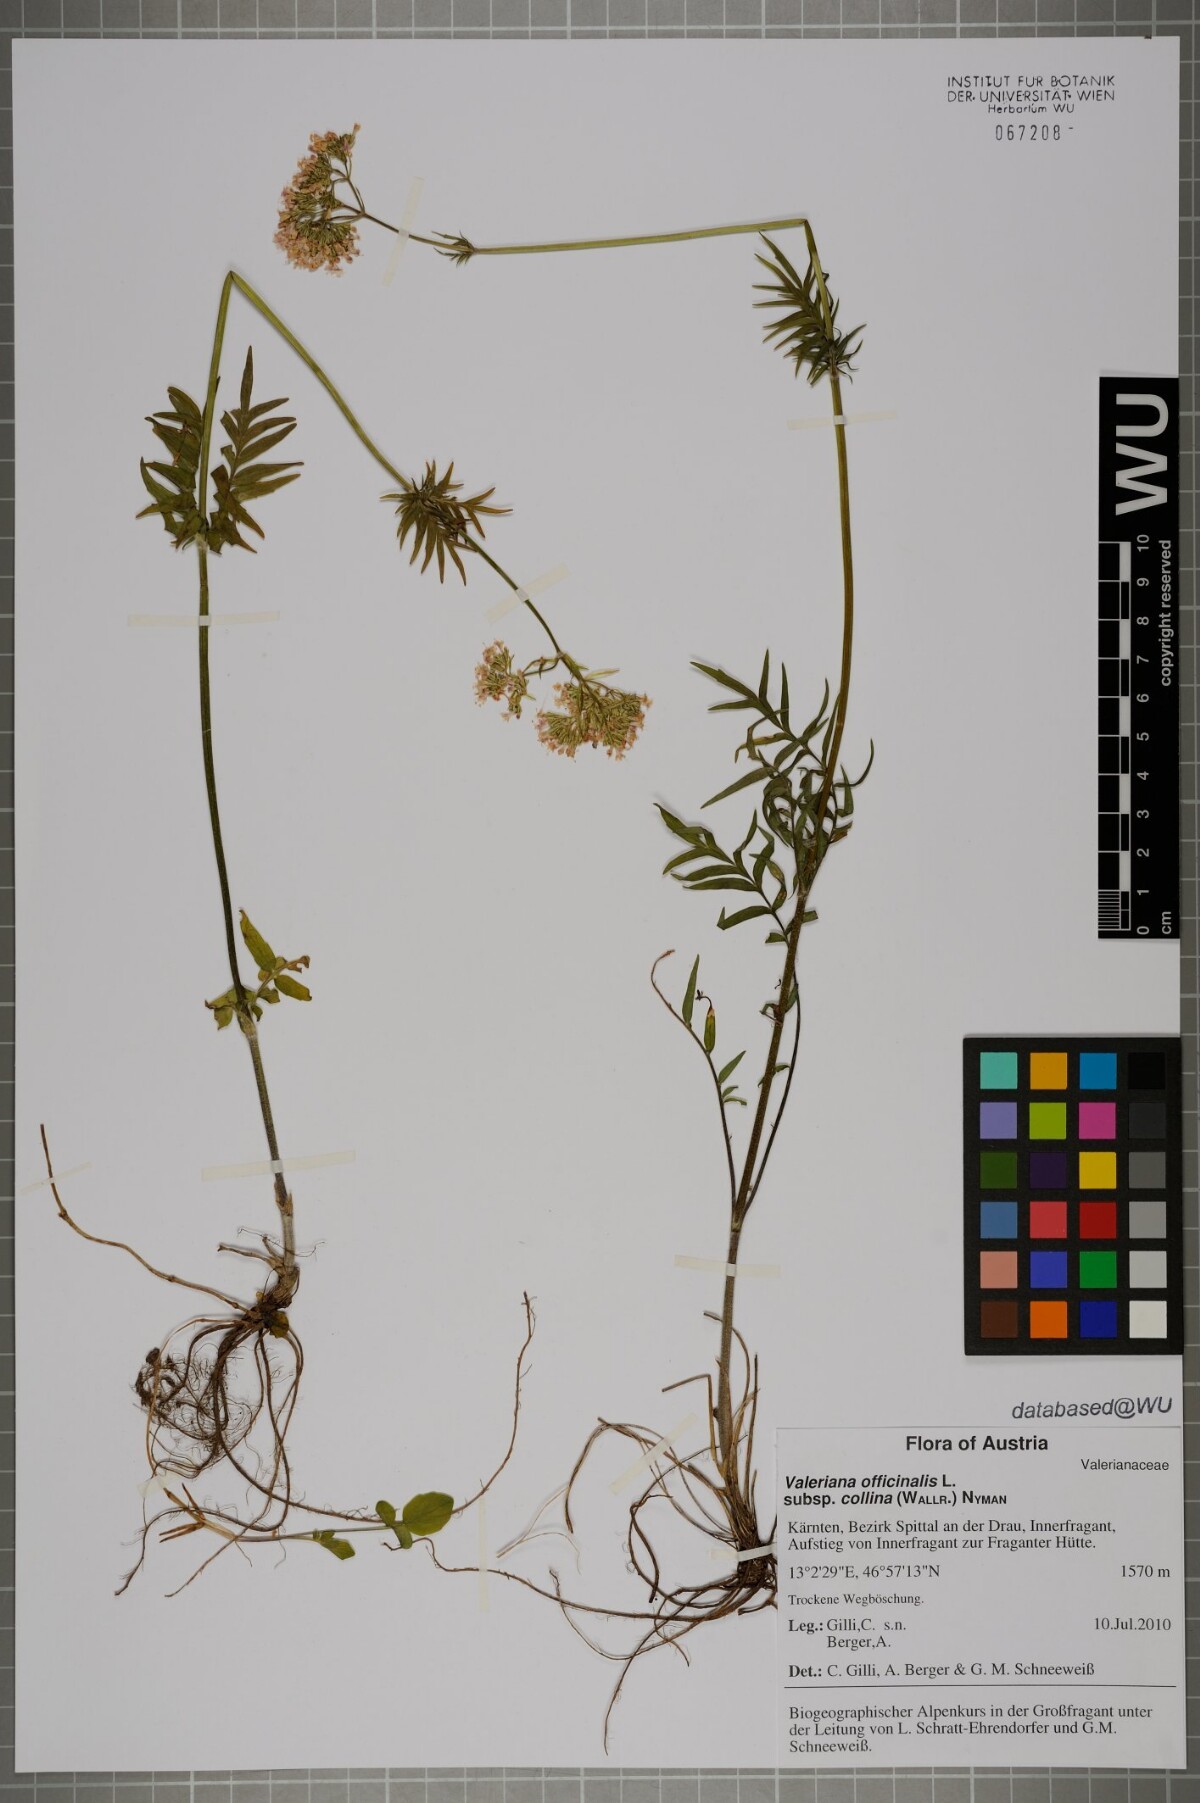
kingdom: Plantae
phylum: Tracheophyta
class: Magnoliopsida
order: Dipsacales
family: Caprifoliaceae
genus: Valeriana
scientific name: Valeriana pratensis
